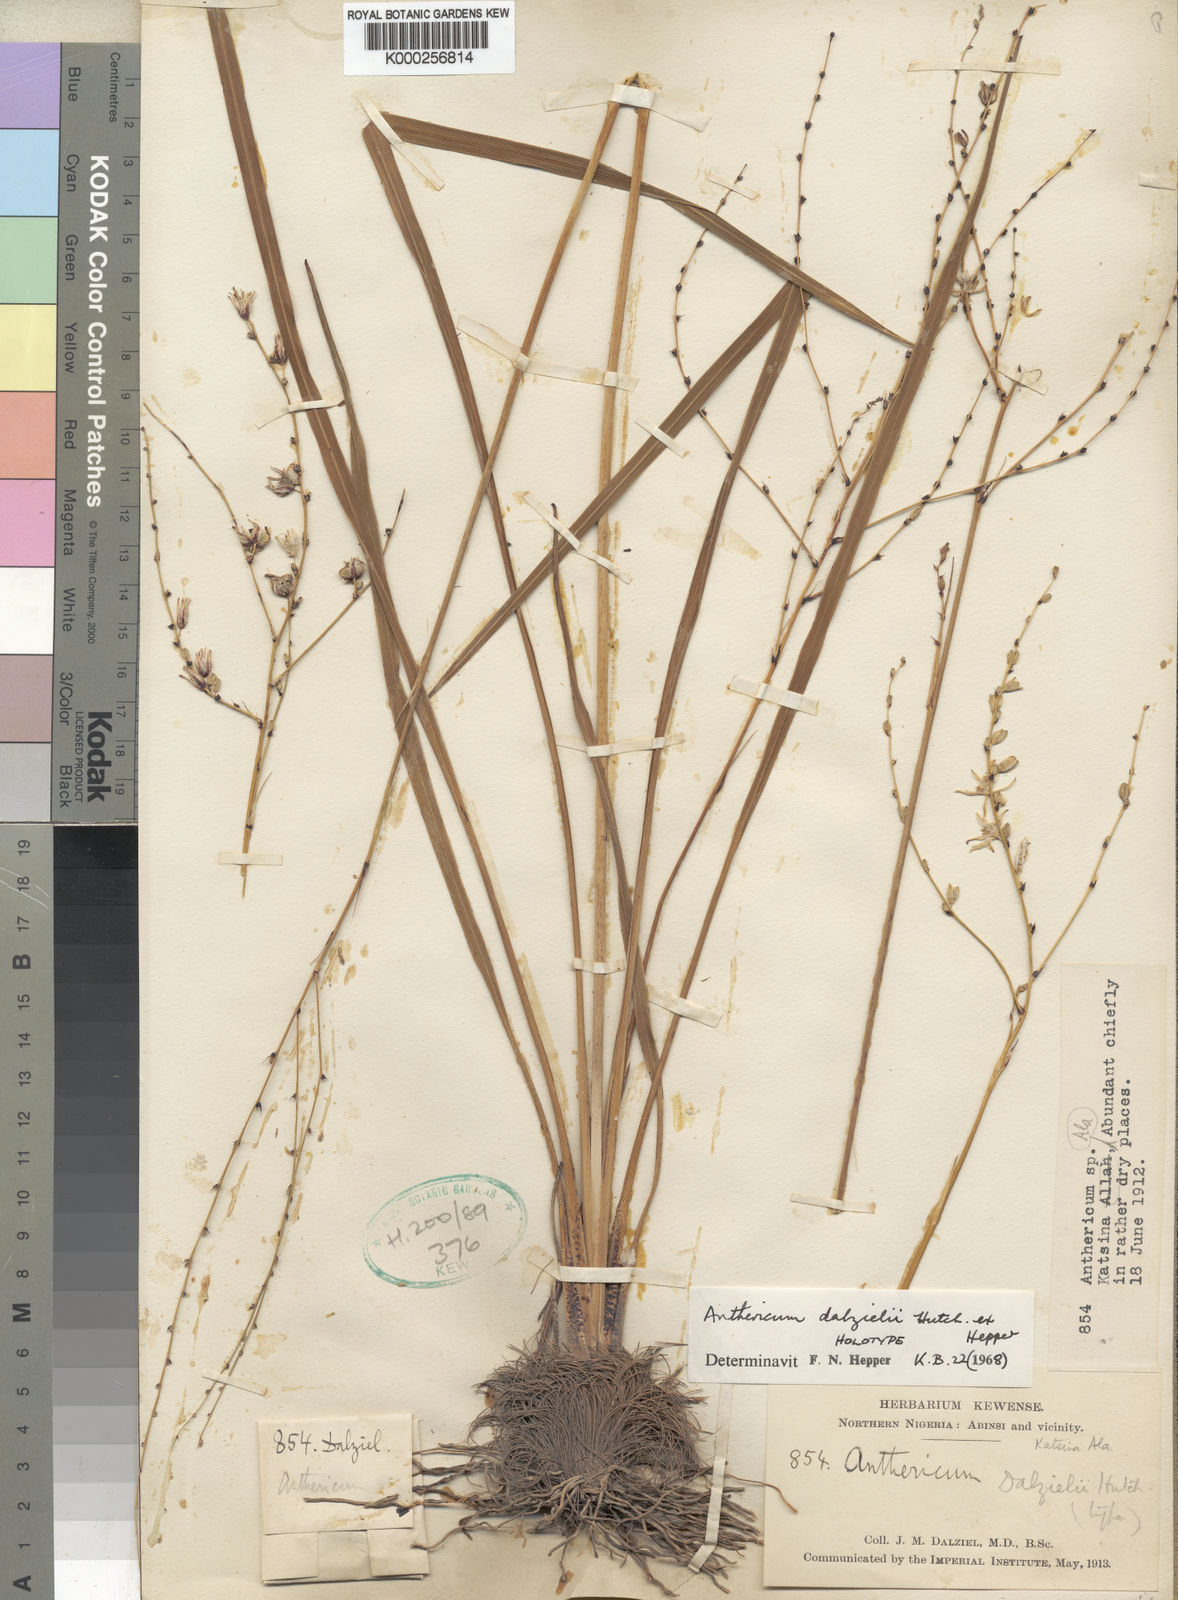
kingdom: Plantae
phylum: Tracheophyta
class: Liliopsida
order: Asparagales
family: Asparagaceae
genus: Chlorophytum
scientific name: Chlorophytum dalzielii
